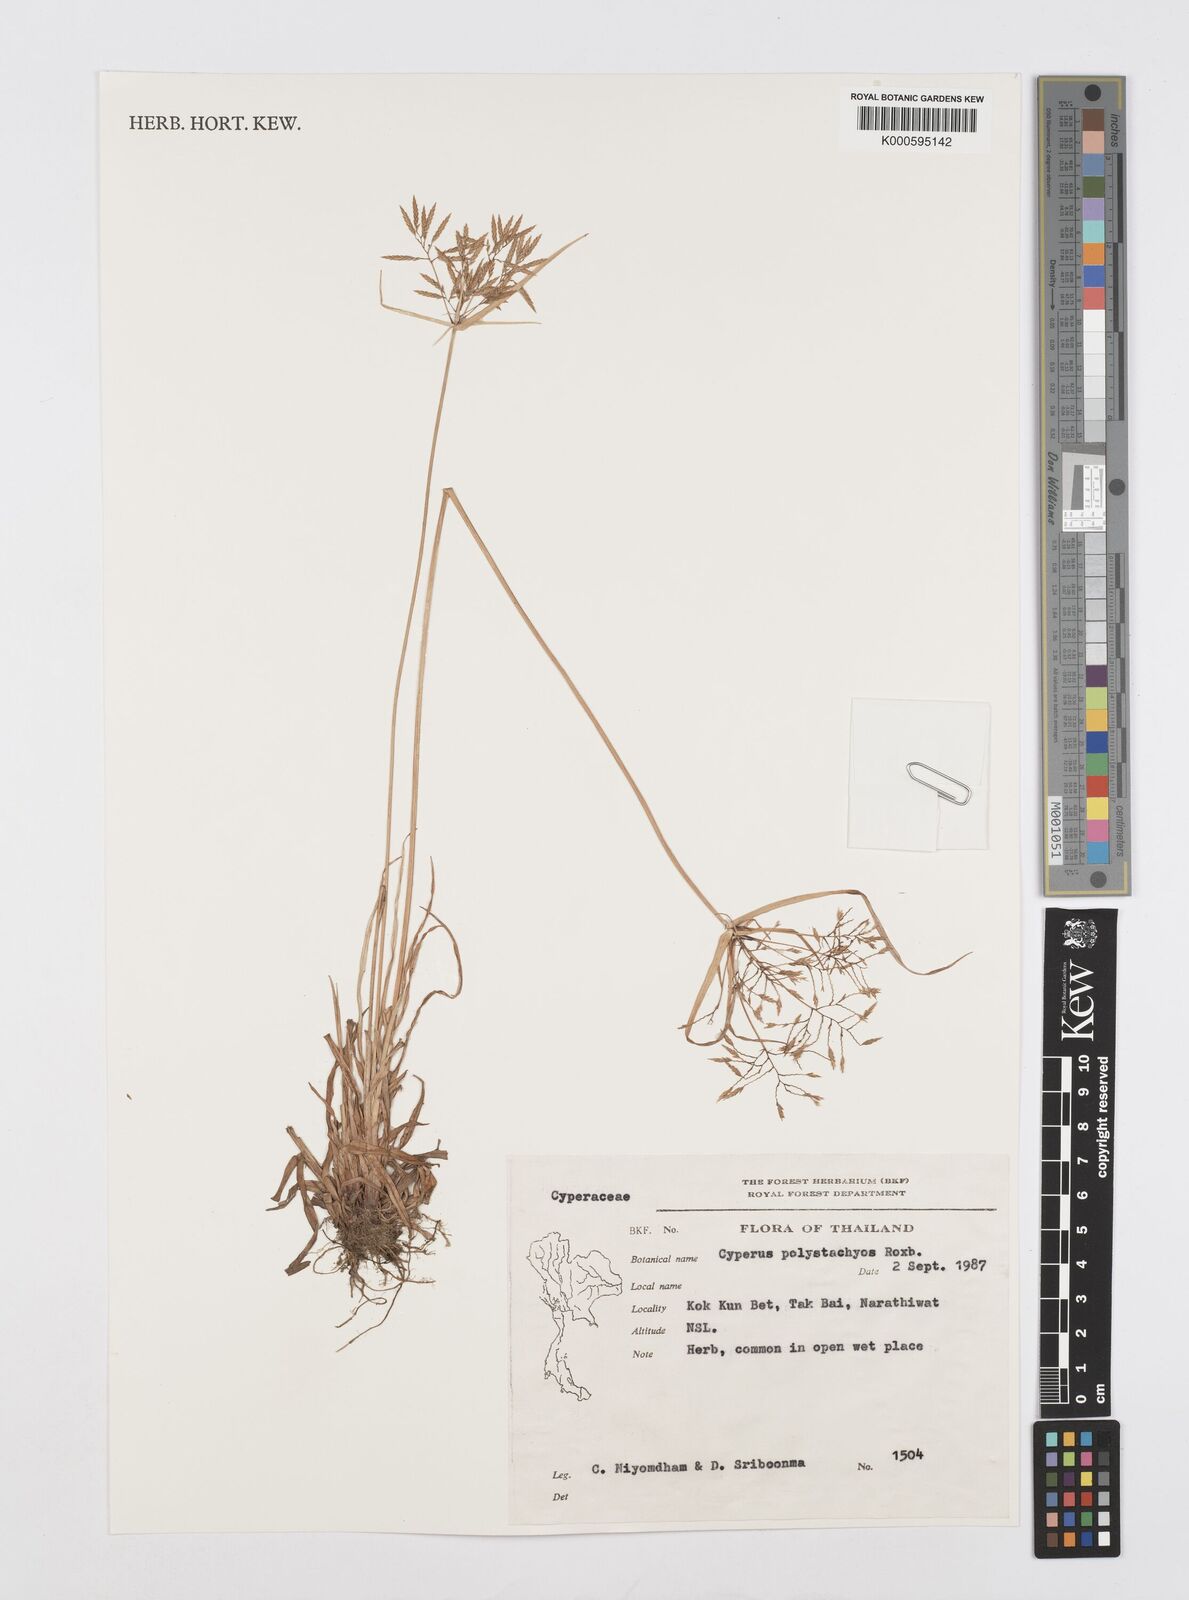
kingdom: Plantae
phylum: Tracheophyta
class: Liliopsida
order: Poales
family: Cyperaceae
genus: Cyperus
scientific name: Cyperus polystachyos
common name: Bunchy flat sedge
